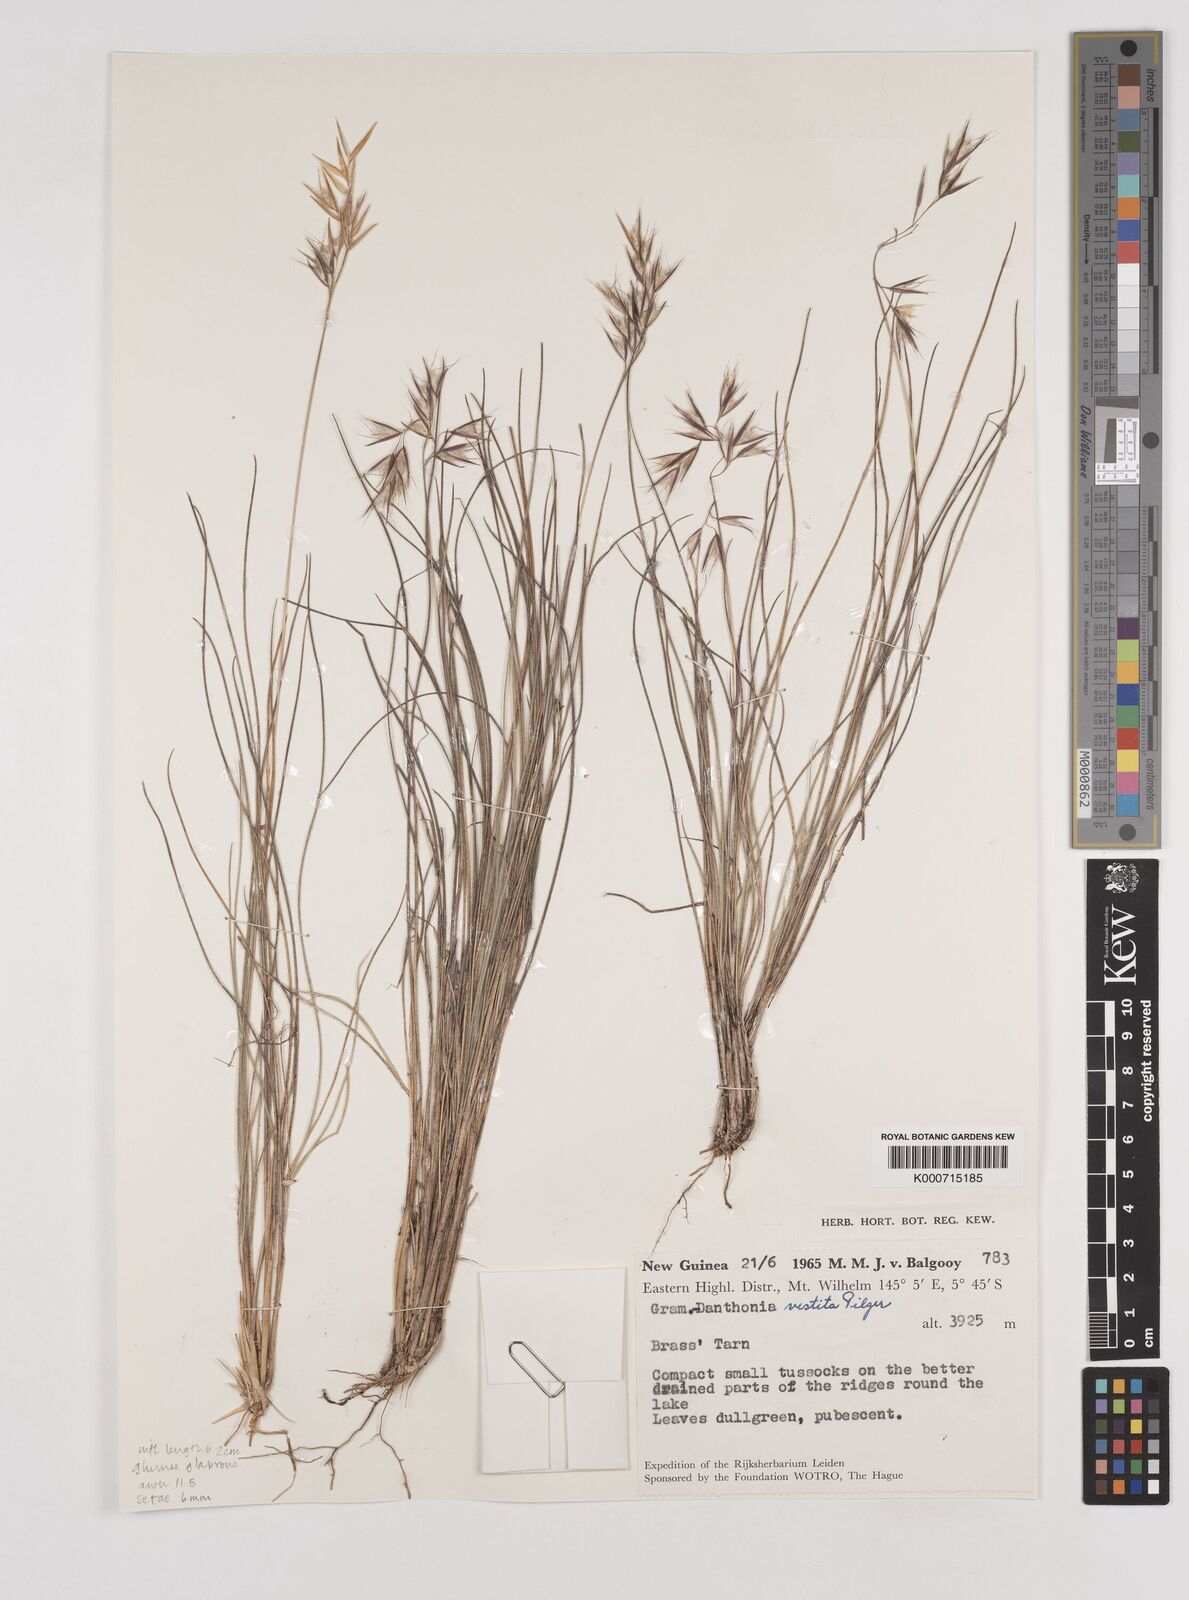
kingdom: Plantae
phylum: Tracheophyta
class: Liliopsida
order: Poales
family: Poaceae
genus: Rytidosperma
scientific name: Rytidosperma vestitum
